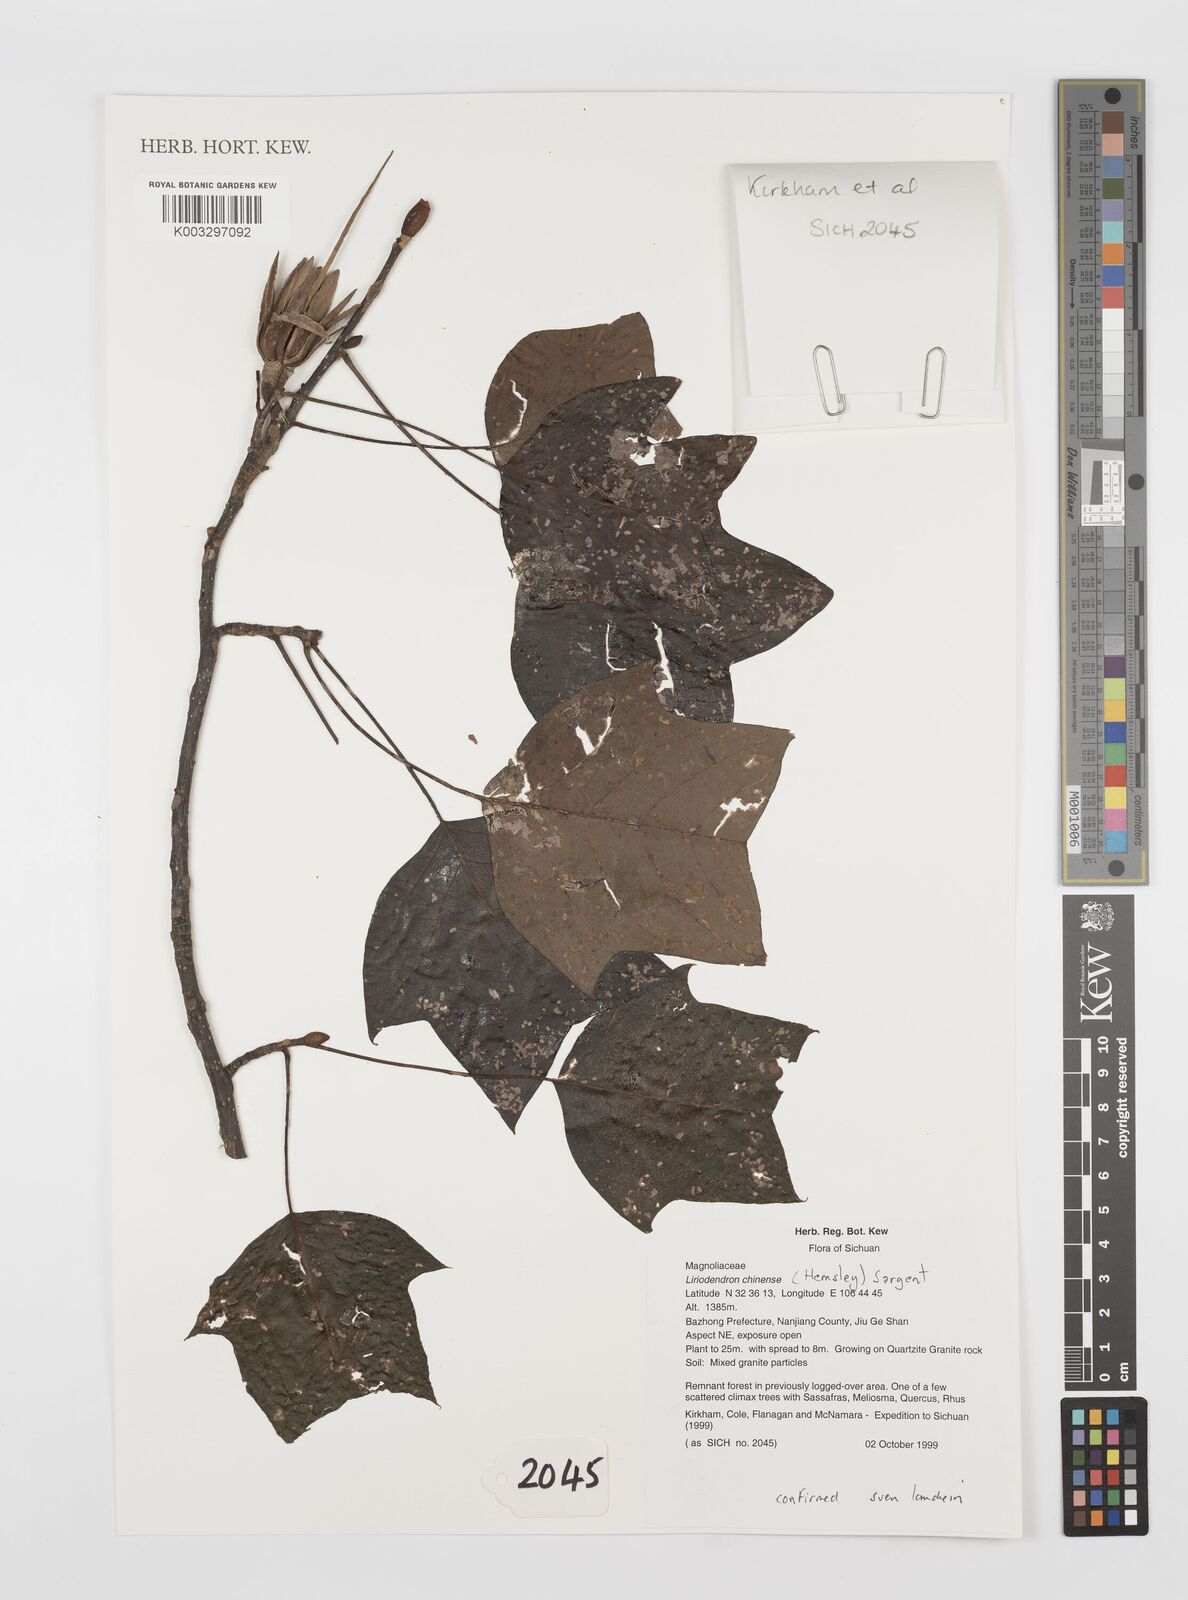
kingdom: Plantae
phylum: Tracheophyta
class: Magnoliopsida
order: Magnoliales
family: Magnoliaceae
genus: Liriodendron
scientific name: Liriodendron chinense
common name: Chinese tuliptree
